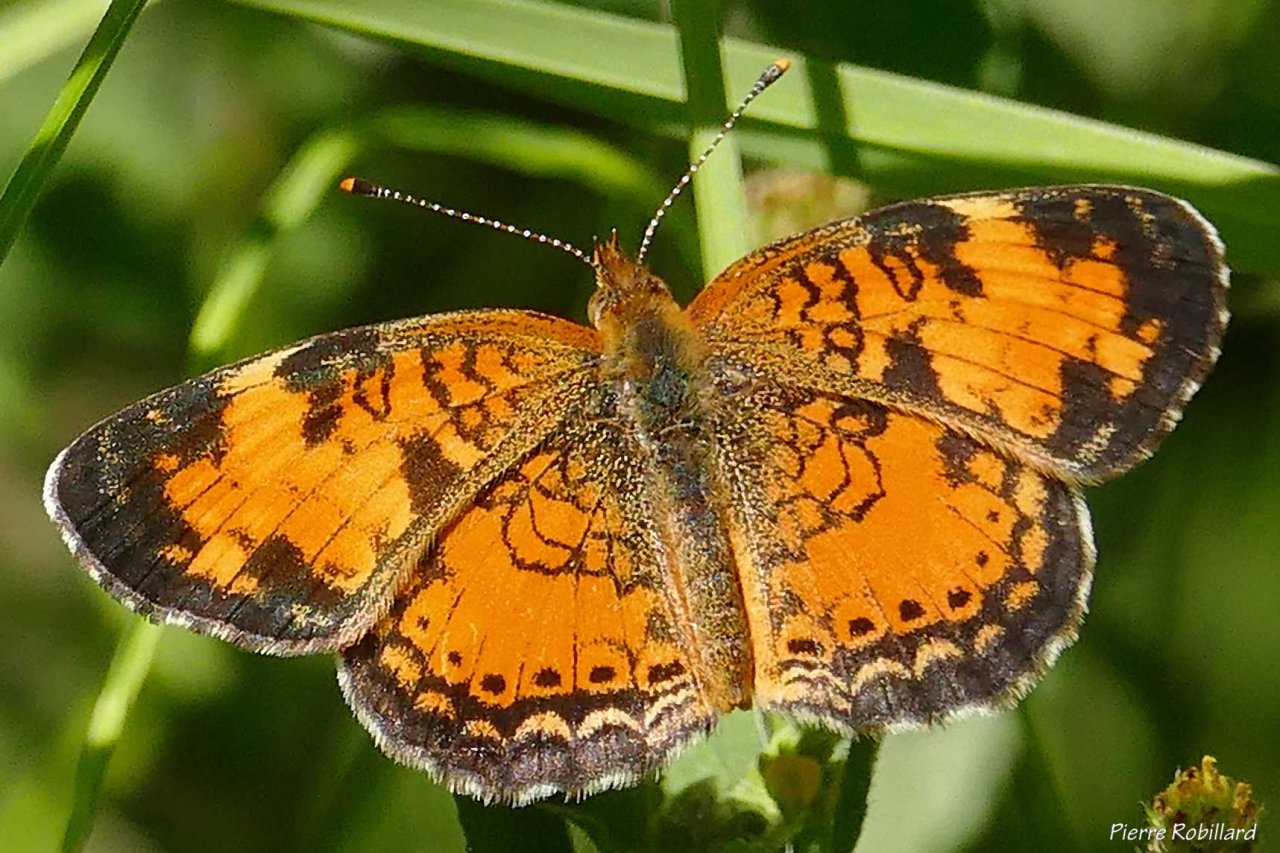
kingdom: Animalia
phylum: Arthropoda
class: Insecta
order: Lepidoptera
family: Nymphalidae
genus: Phyciodes
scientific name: Phyciodes tharos
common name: Northern Crescent
